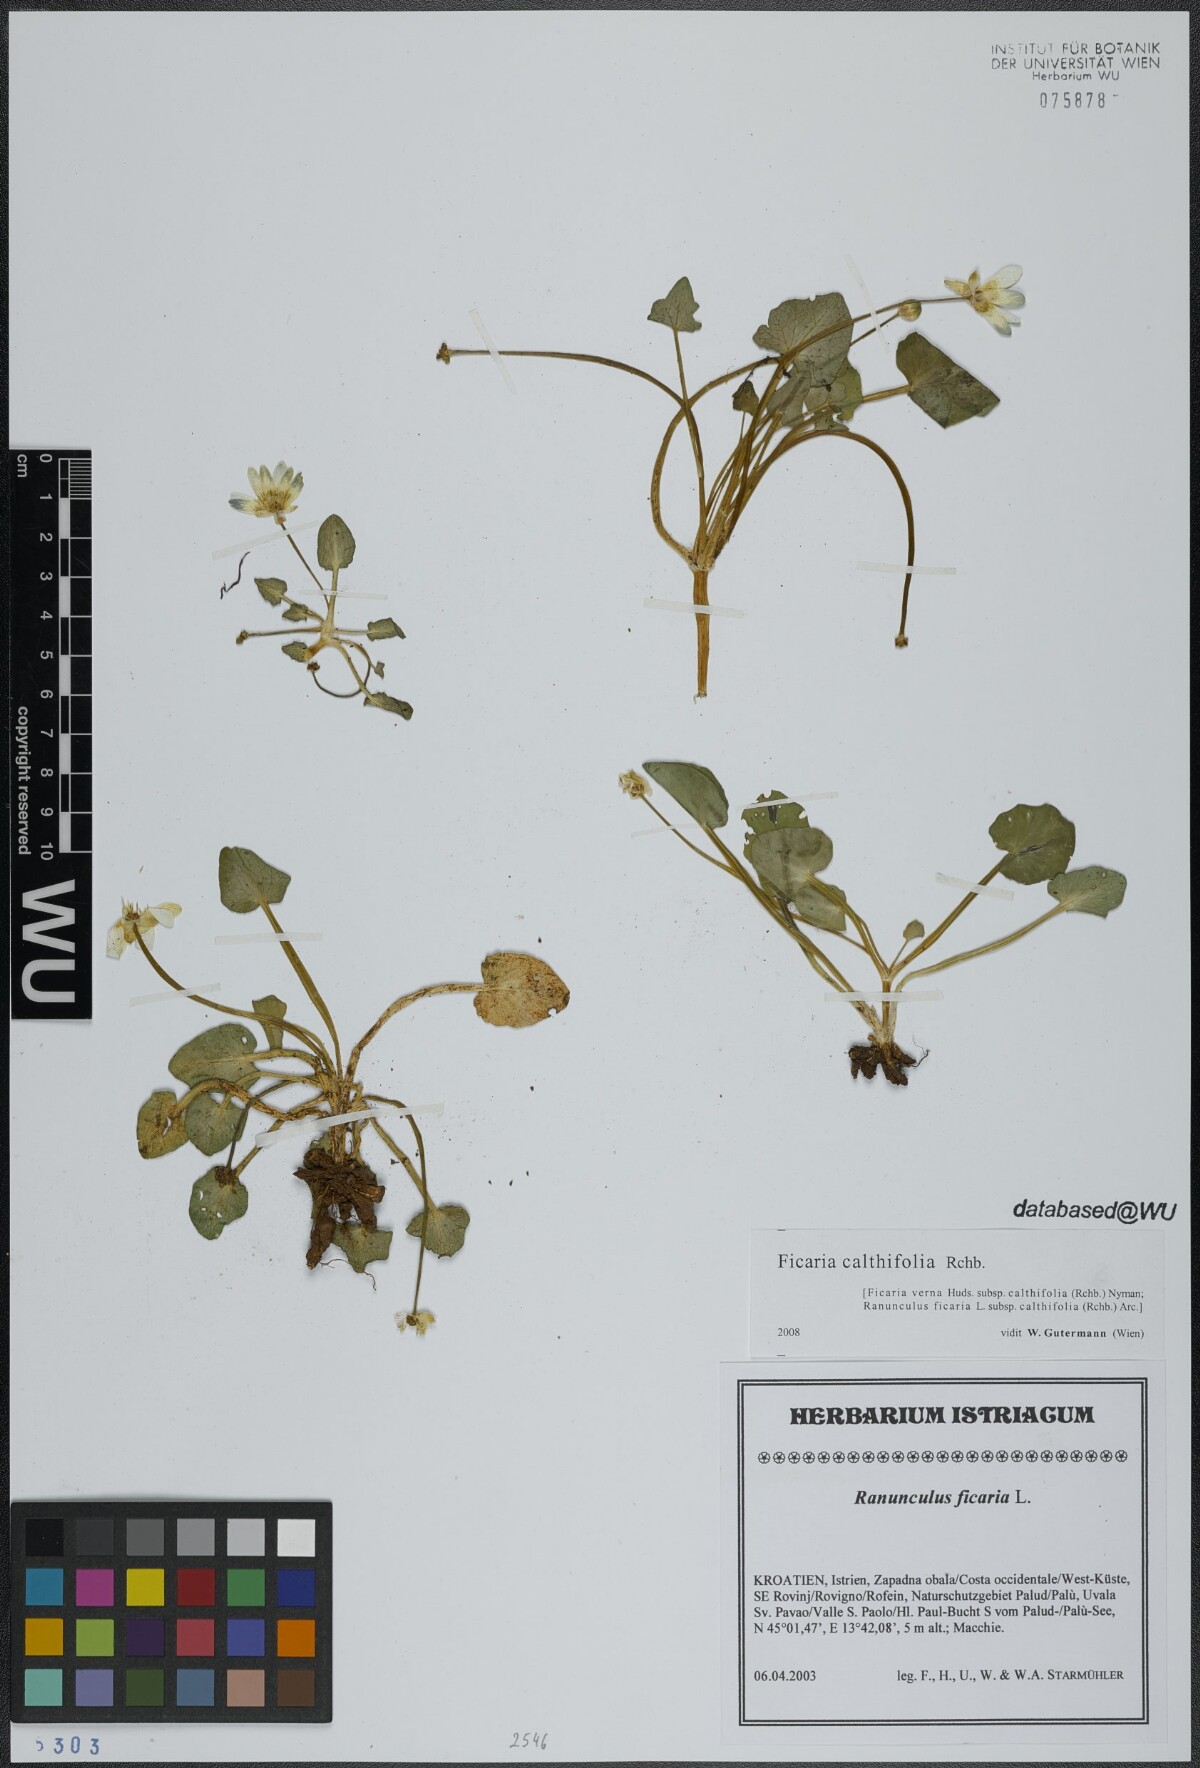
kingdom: Plantae
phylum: Tracheophyta
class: Magnoliopsida
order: Ranunculales
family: Ranunculaceae
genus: Ficaria
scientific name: Ficaria calthifolia
